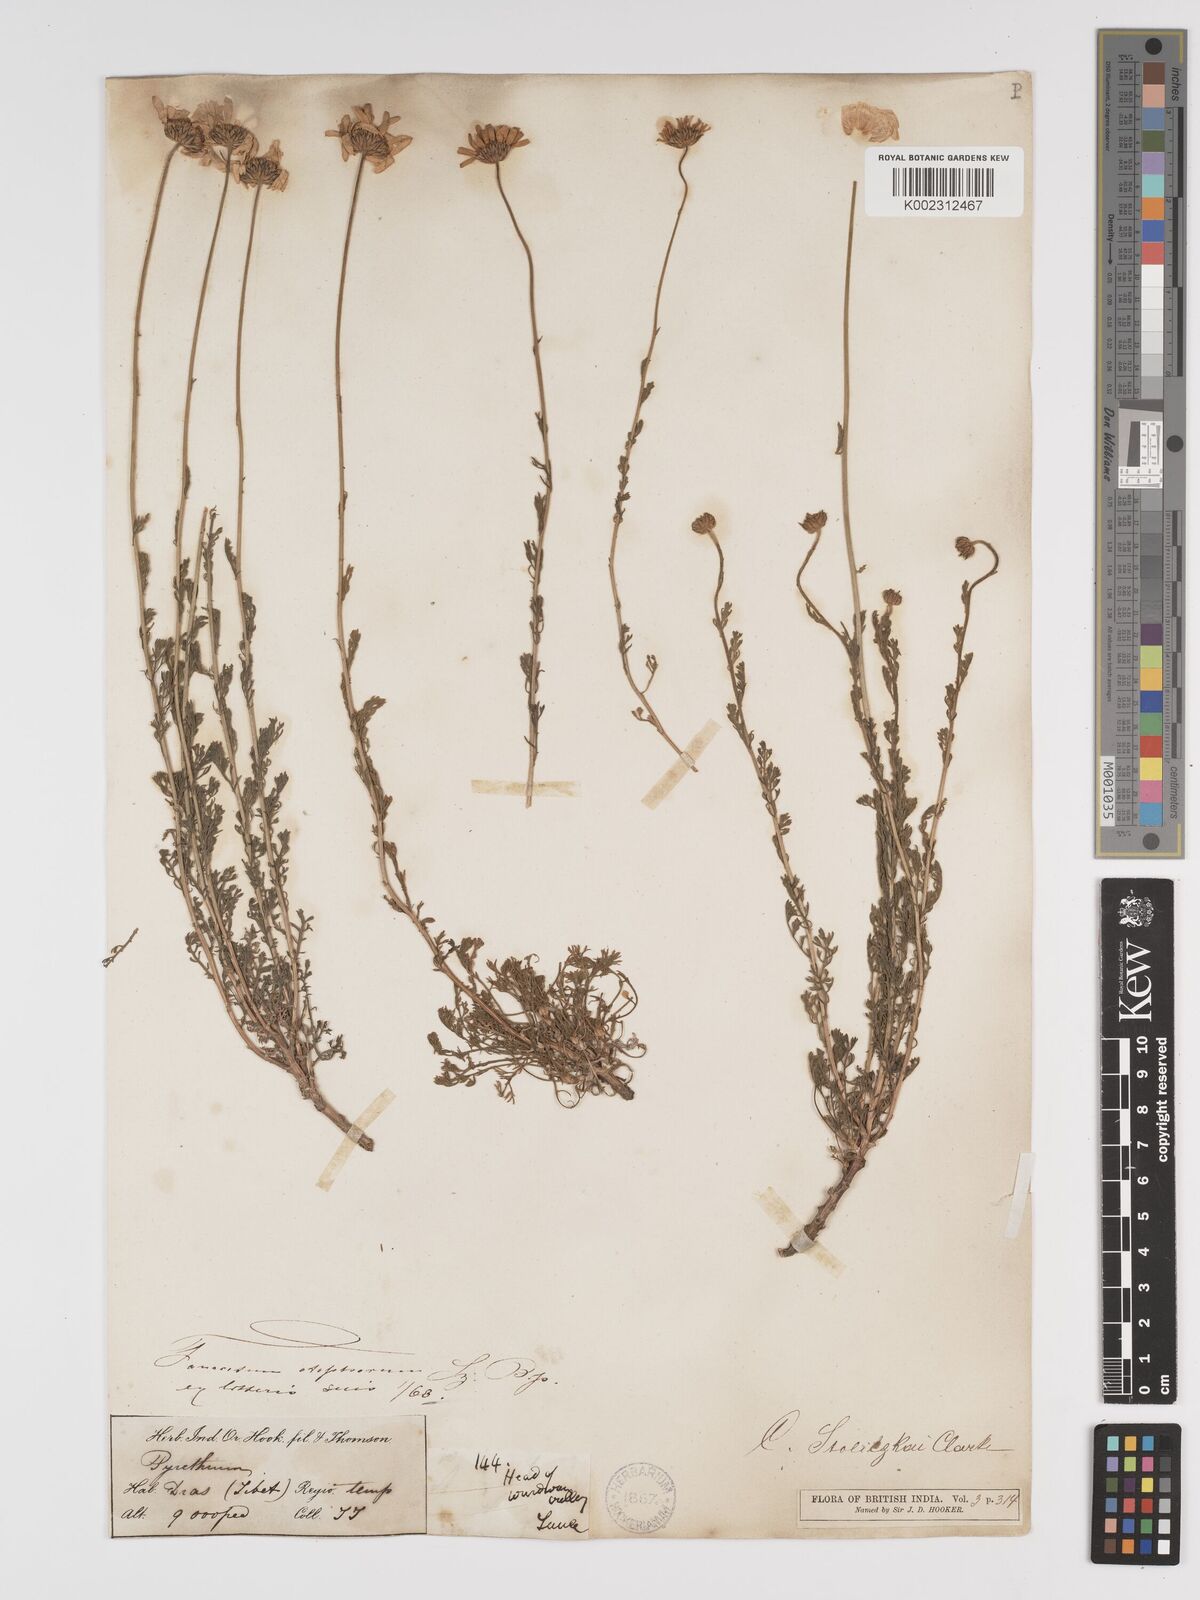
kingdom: Plantae
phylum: Tracheophyta
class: Magnoliopsida
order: Asterales
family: Asteraceae
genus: Tanacetum
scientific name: Tanacetum stoliczkae
